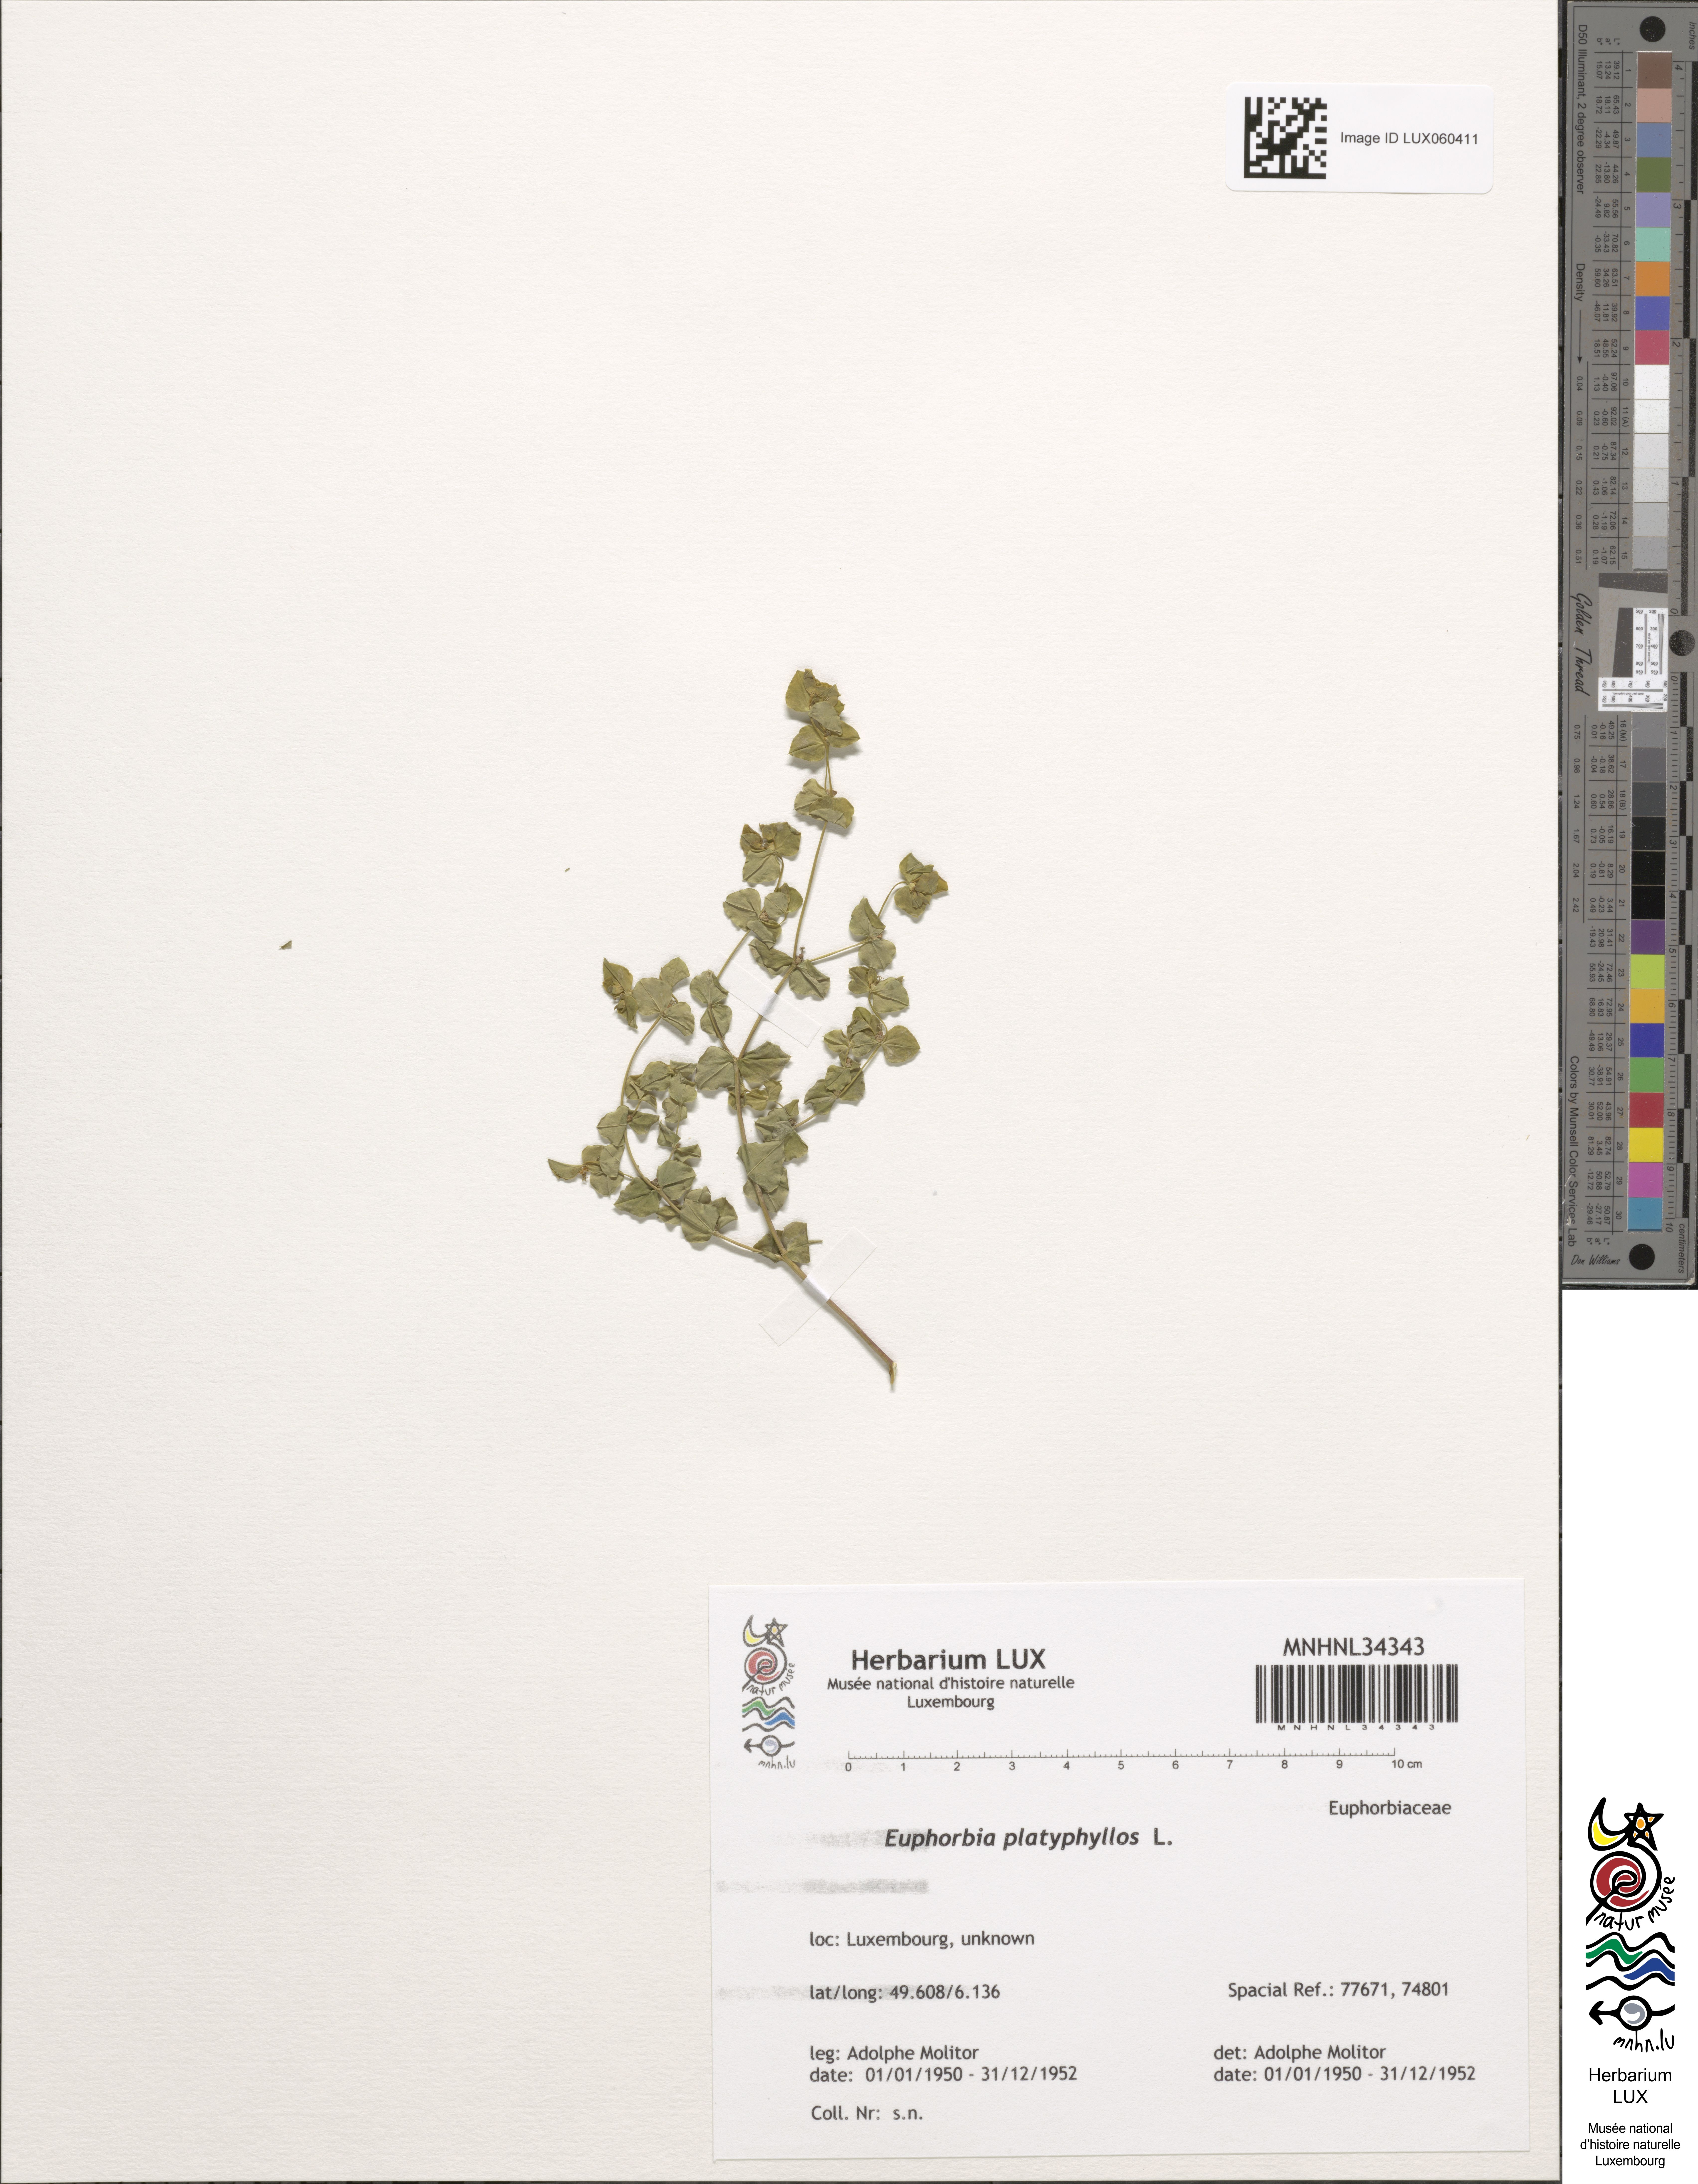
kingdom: Plantae
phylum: Tracheophyta
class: Magnoliopsida
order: Malpighiales
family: Euphorbiaceae
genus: Euphorbia
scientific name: Euphorbia cyparissias
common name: Cypress spurge
